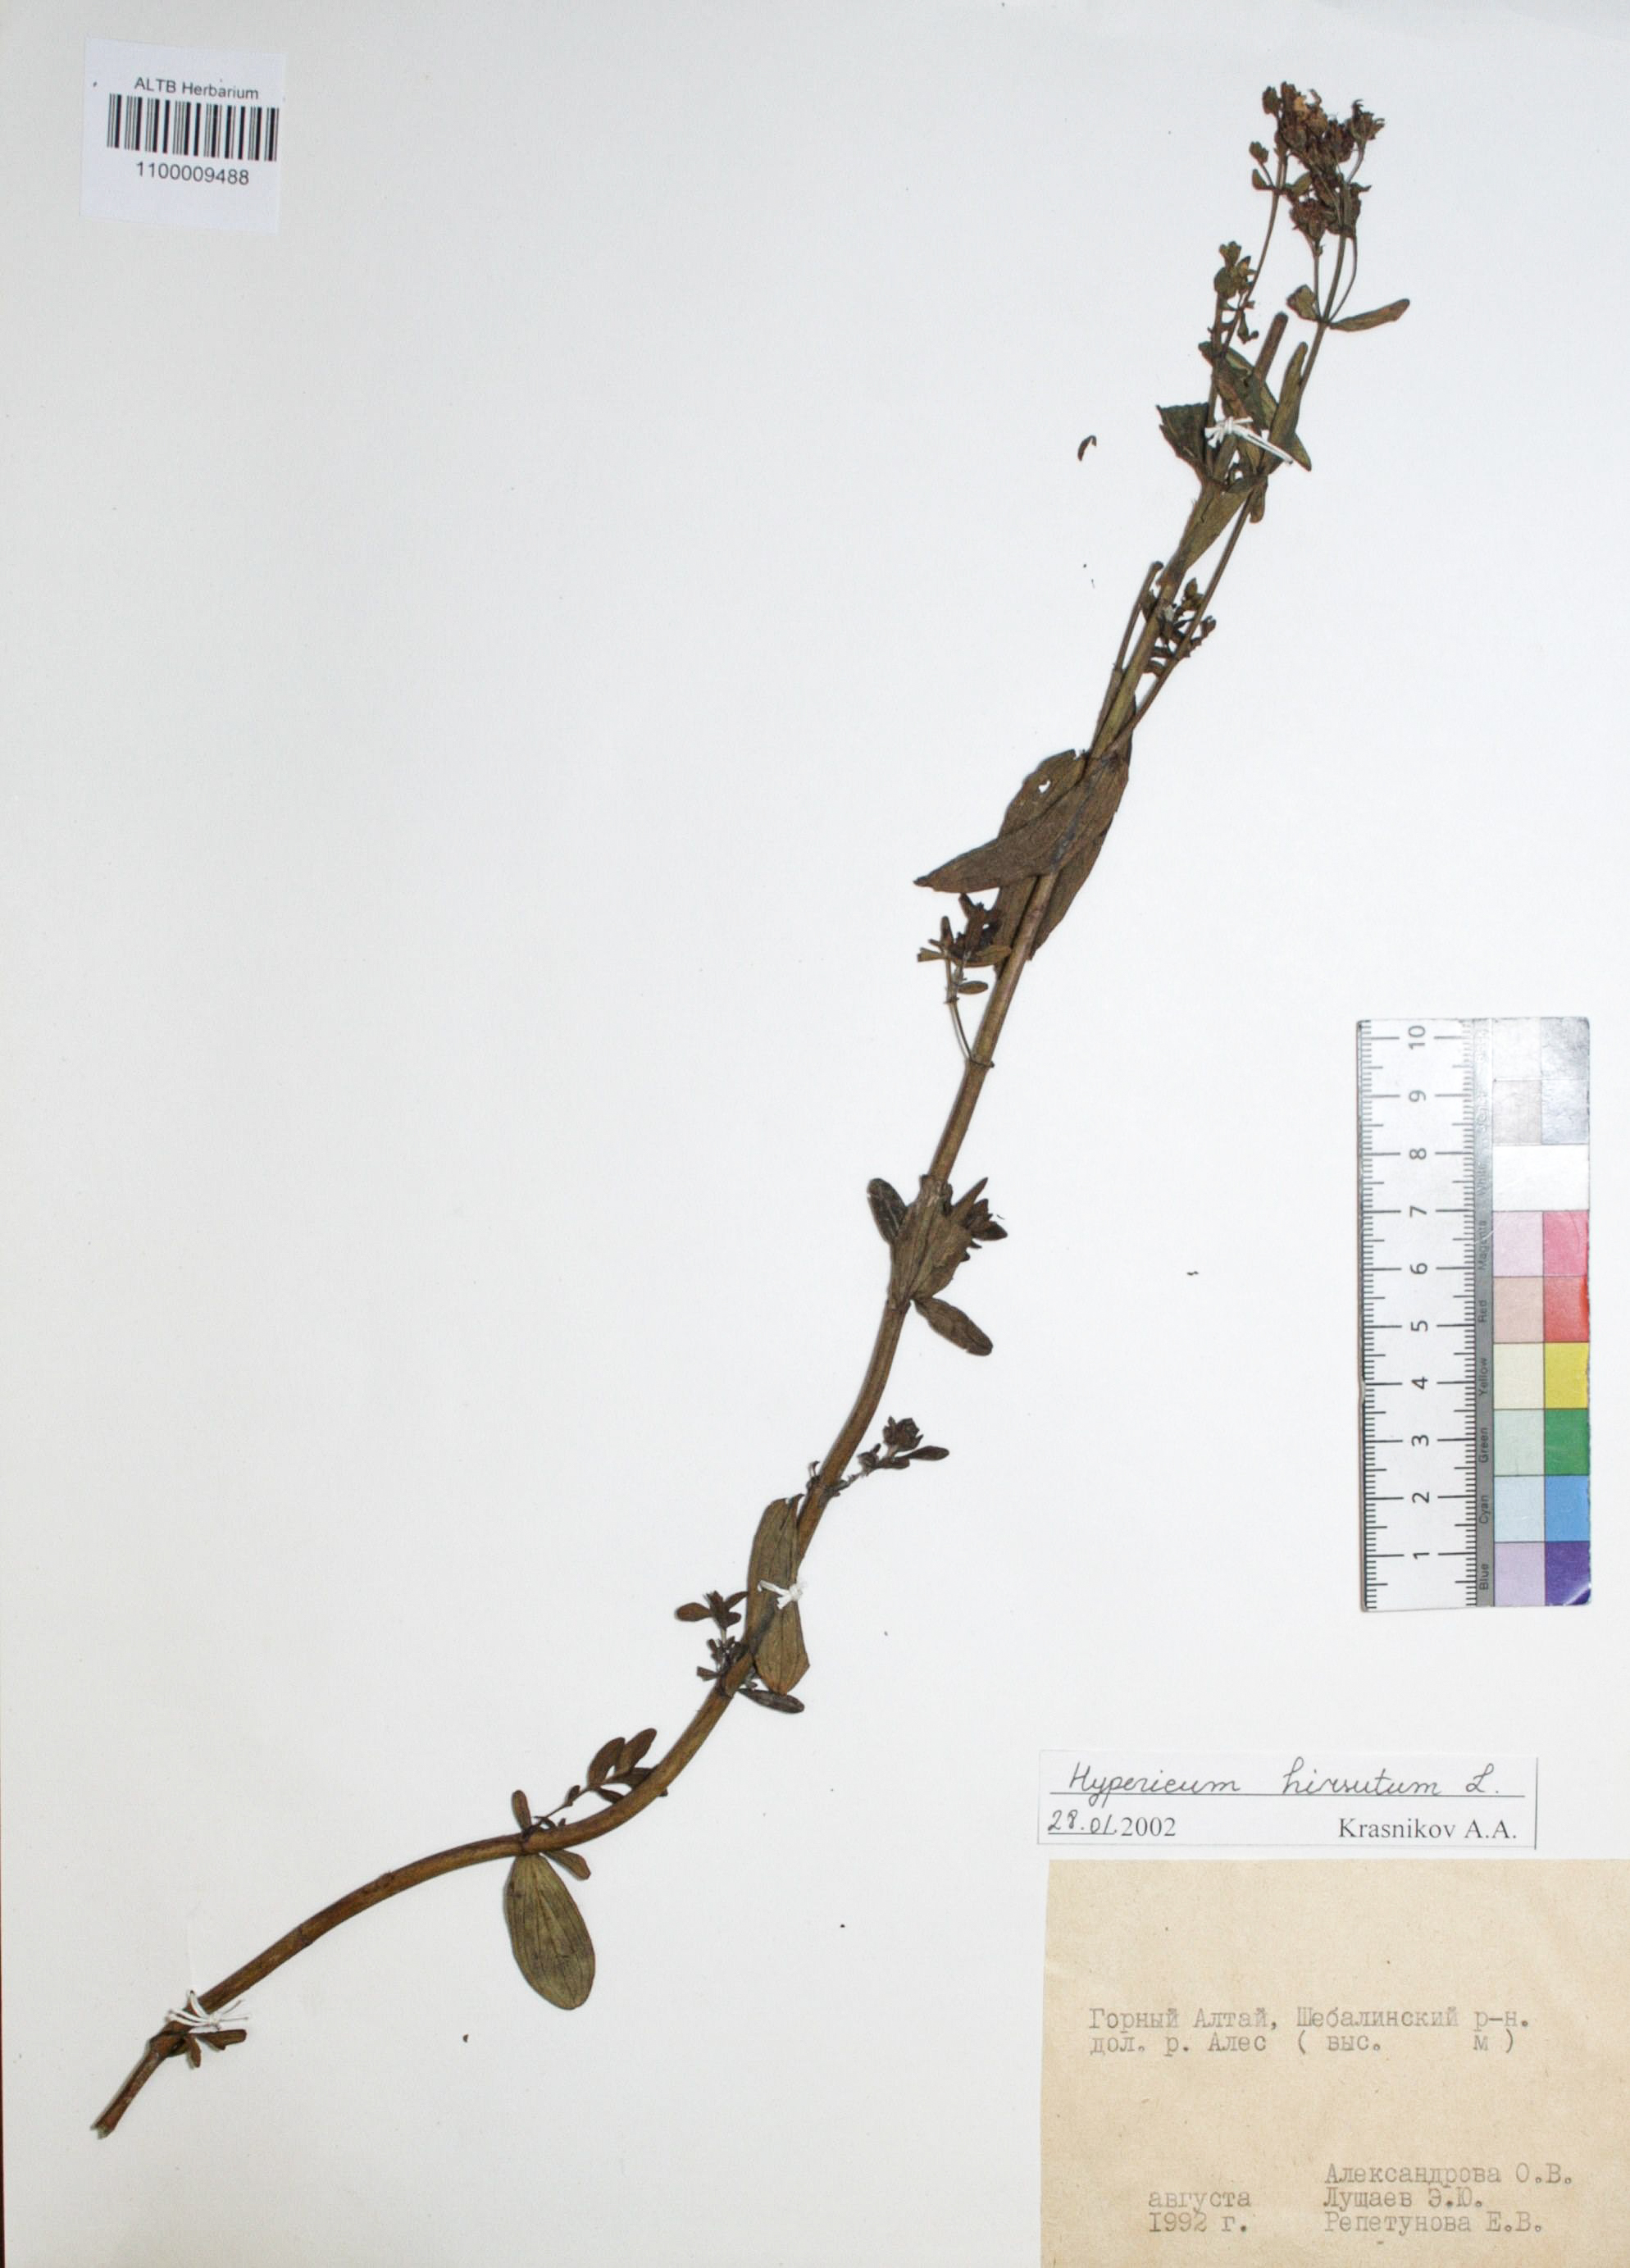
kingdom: Plantae
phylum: Tracheophyta
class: Magnoliopsida
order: Malpighiales
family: Hypericaceae
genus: Hypericum
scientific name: Hypericum hirsutum
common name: Hairy st. john's-wort
